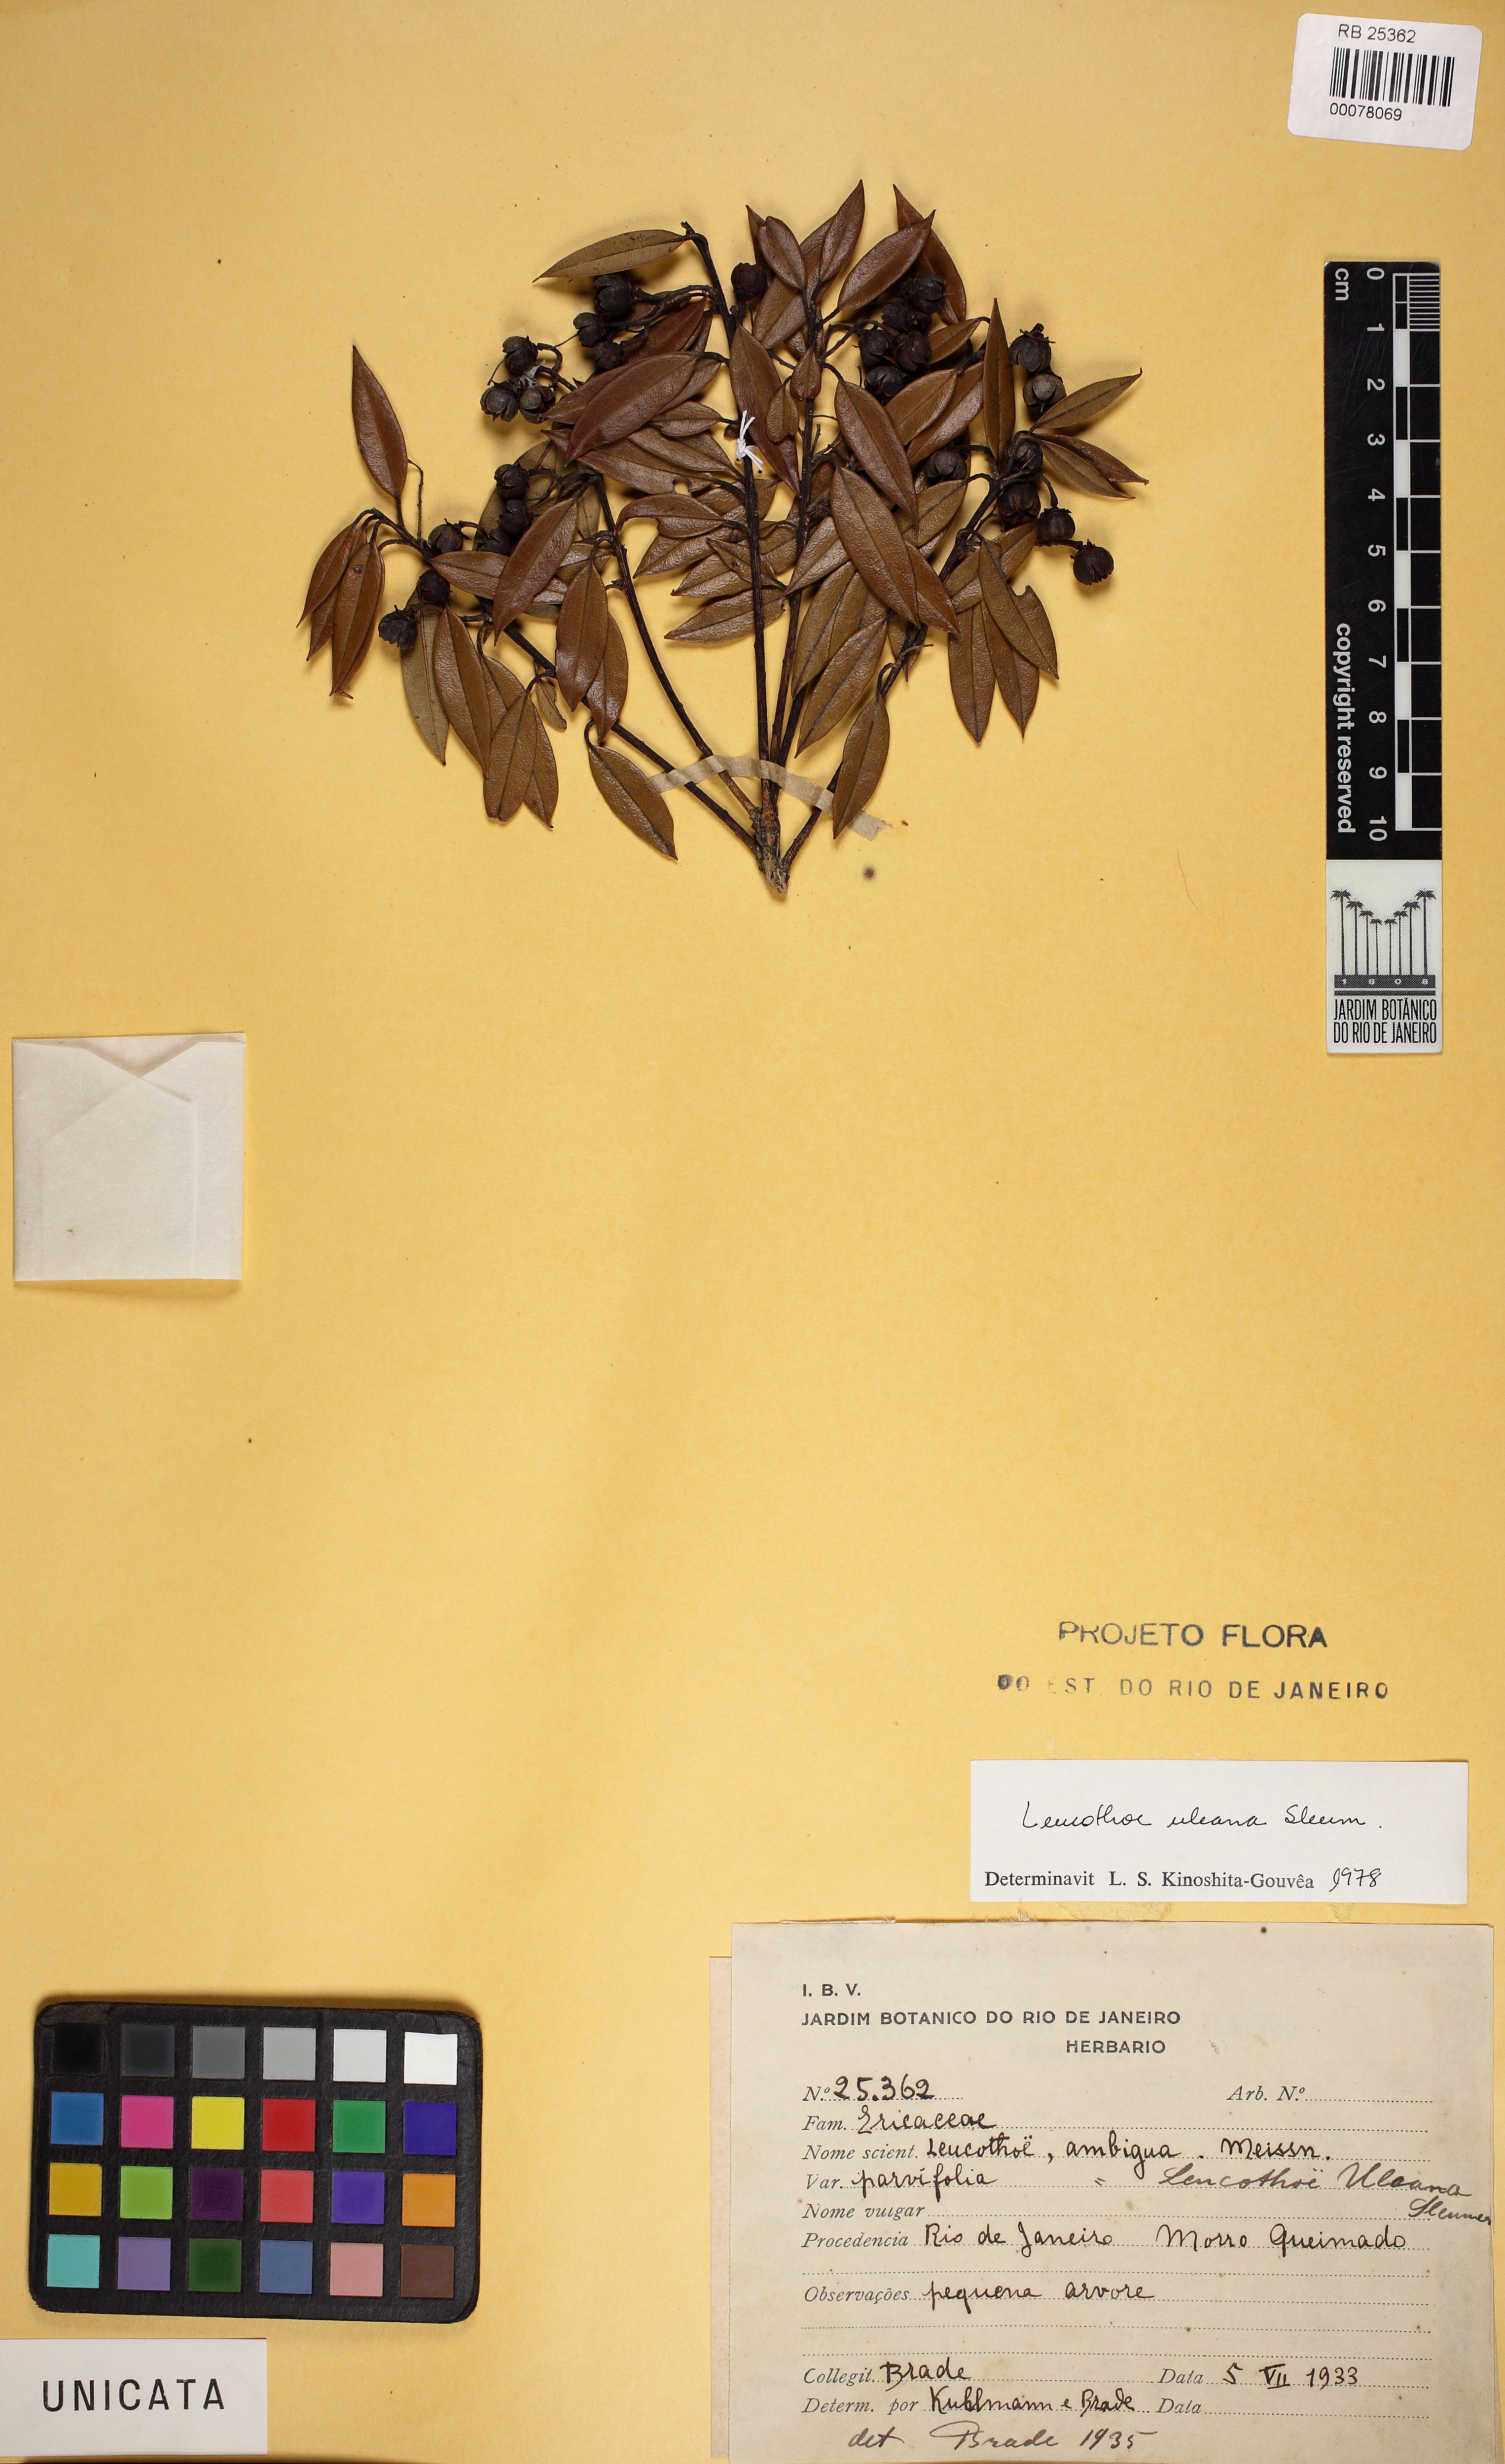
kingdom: Plantae
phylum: Tracheophyta
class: Magnoliopsida
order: Ericales
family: Ericaceae
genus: Agarista
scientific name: Agarista uleana
